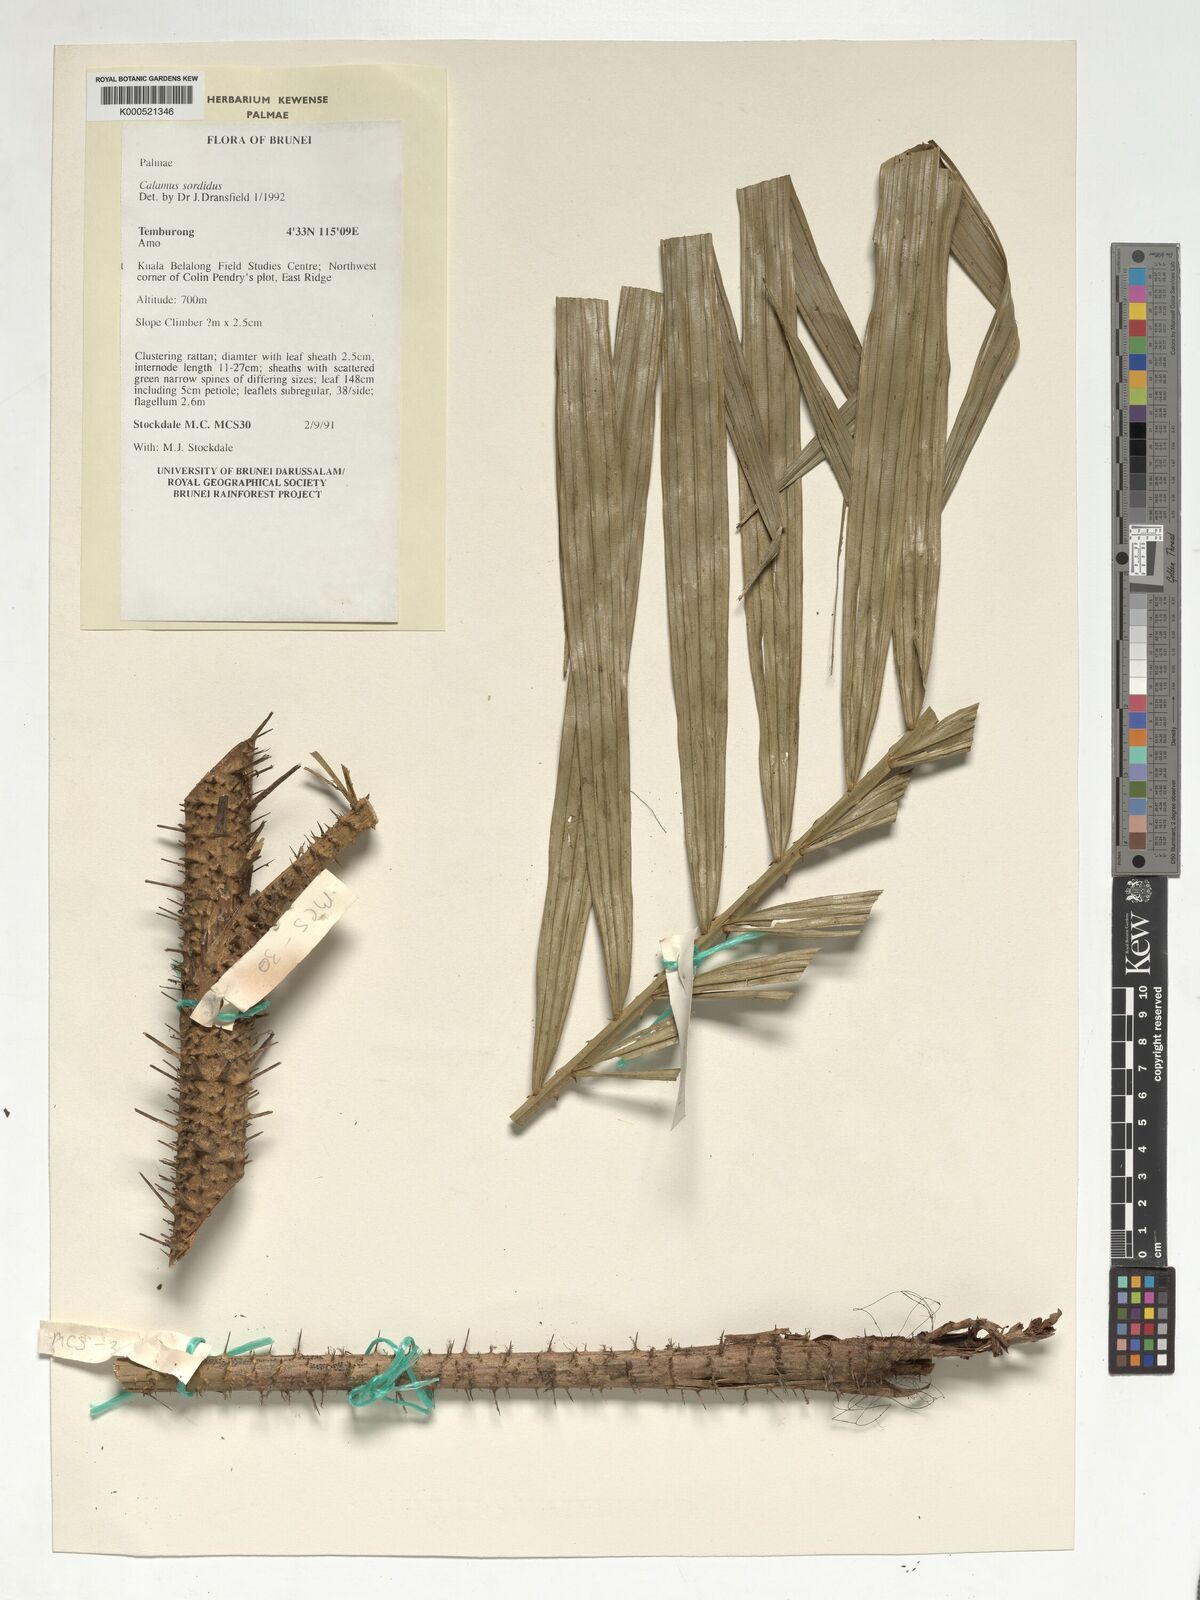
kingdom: Plantae
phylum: Tracheophyta
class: Liliopsida
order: Arecales
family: Arecaceae
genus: Calamus
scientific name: Calamus sordidus
